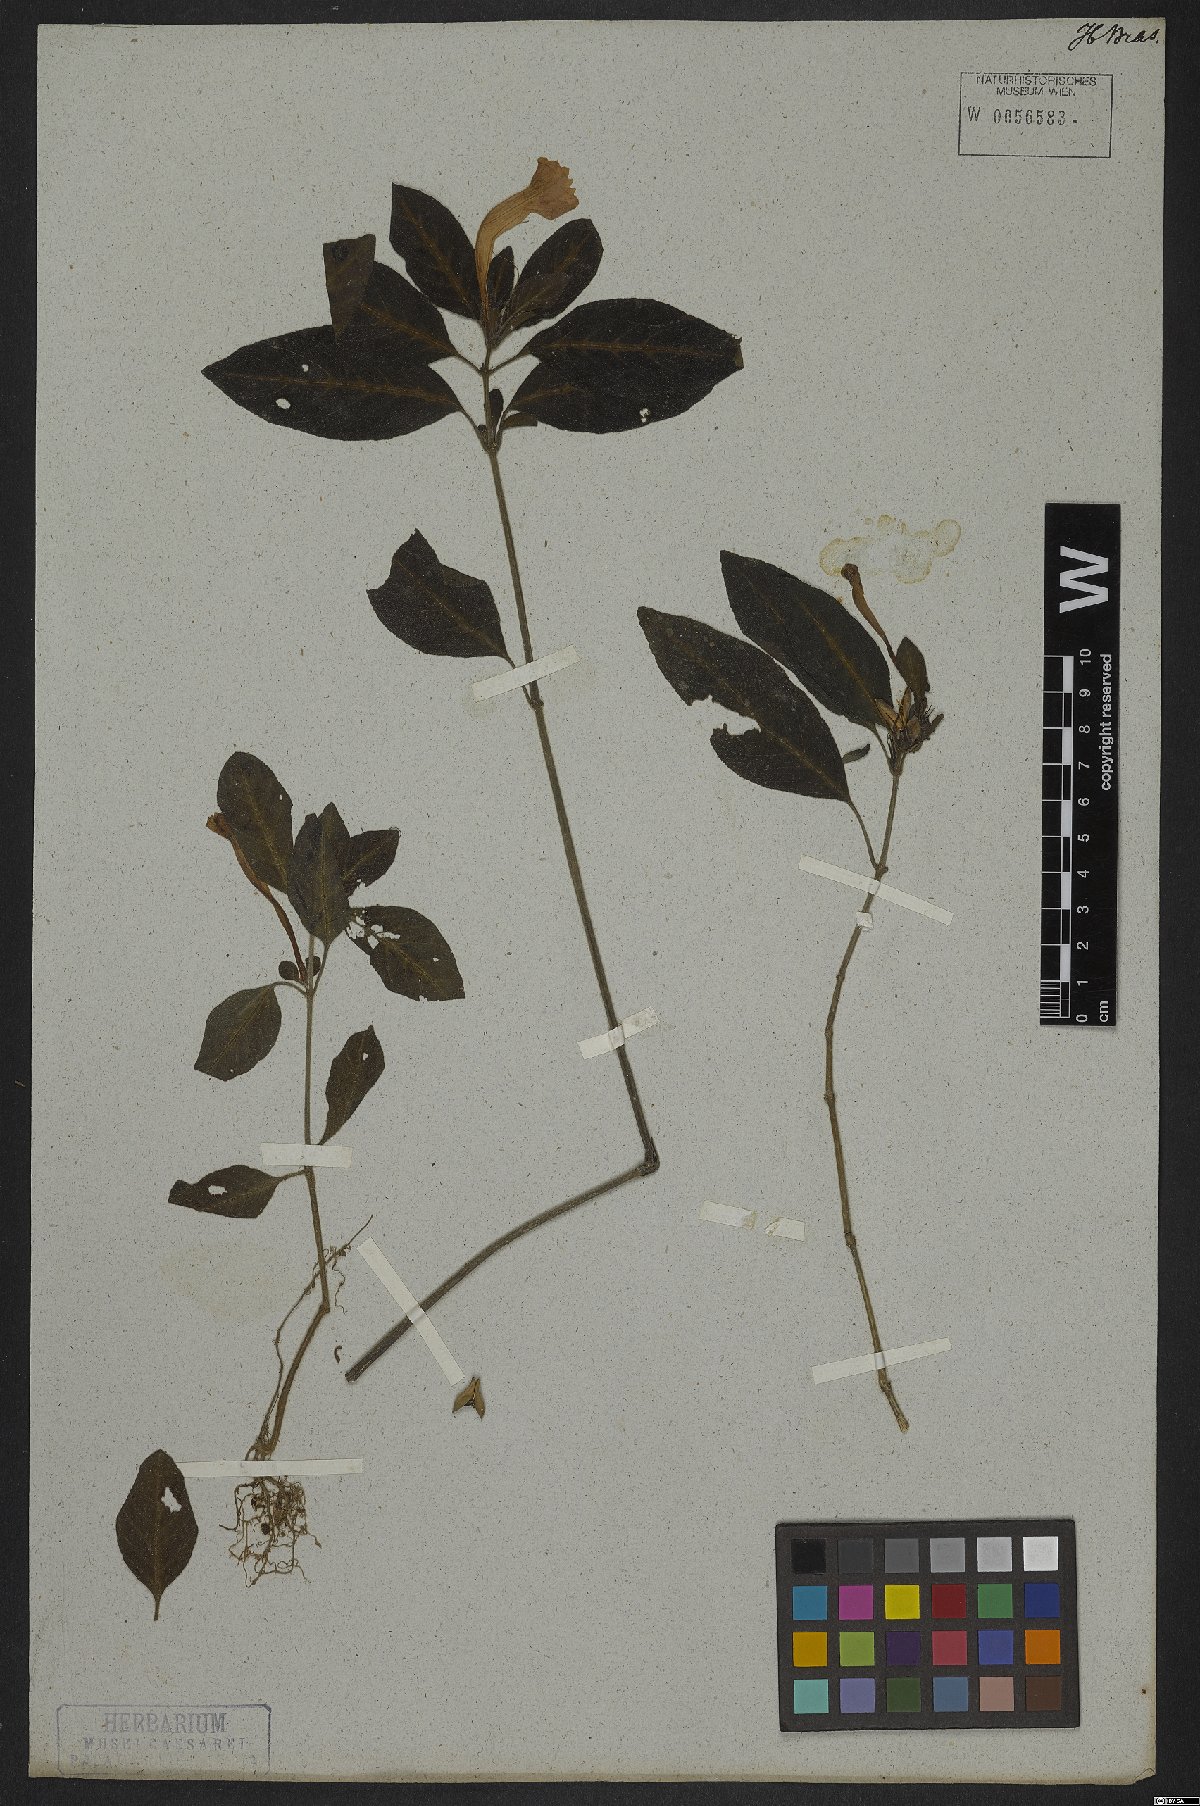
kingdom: Plantae
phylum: Tracheophyta
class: Magnoliopsida
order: Lamiales
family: Acanthaceae
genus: Ruellia
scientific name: Ruellia schottianus
